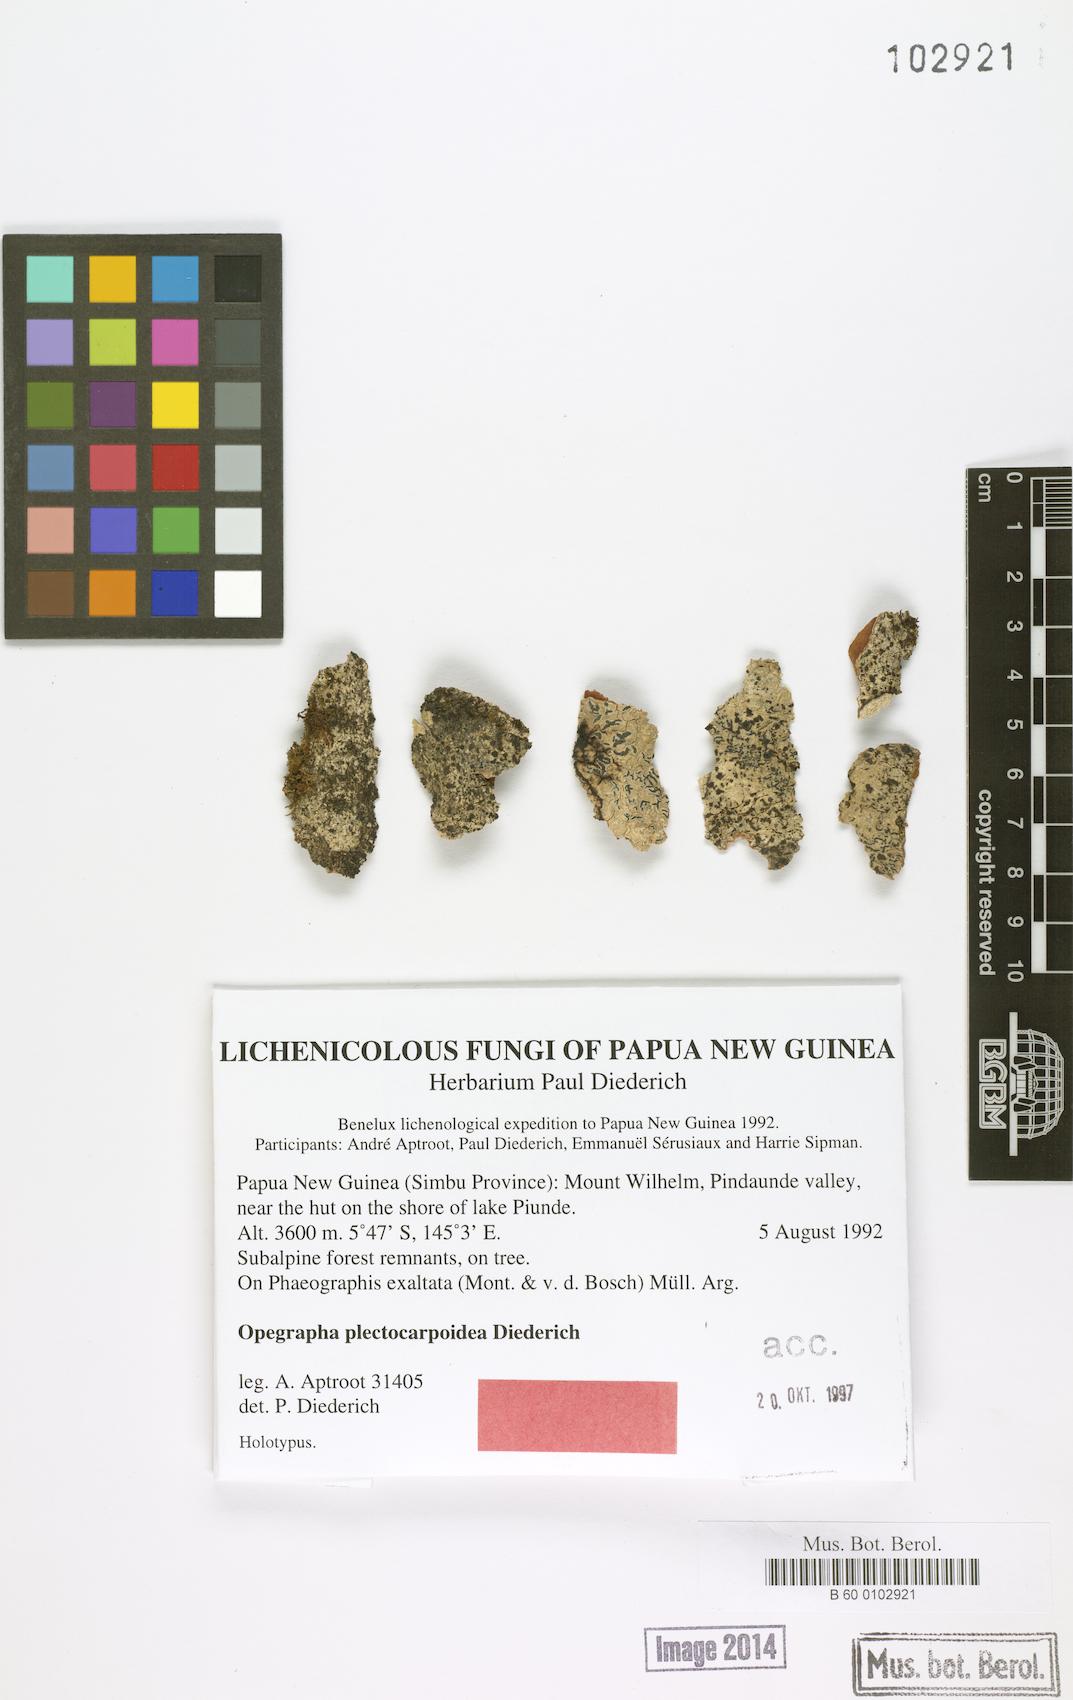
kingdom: Fungi
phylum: Ascomycota
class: Arthoniomycetes
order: Arthoniales
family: Opegraphaceae
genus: Opegrapha
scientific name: Opegrapha
